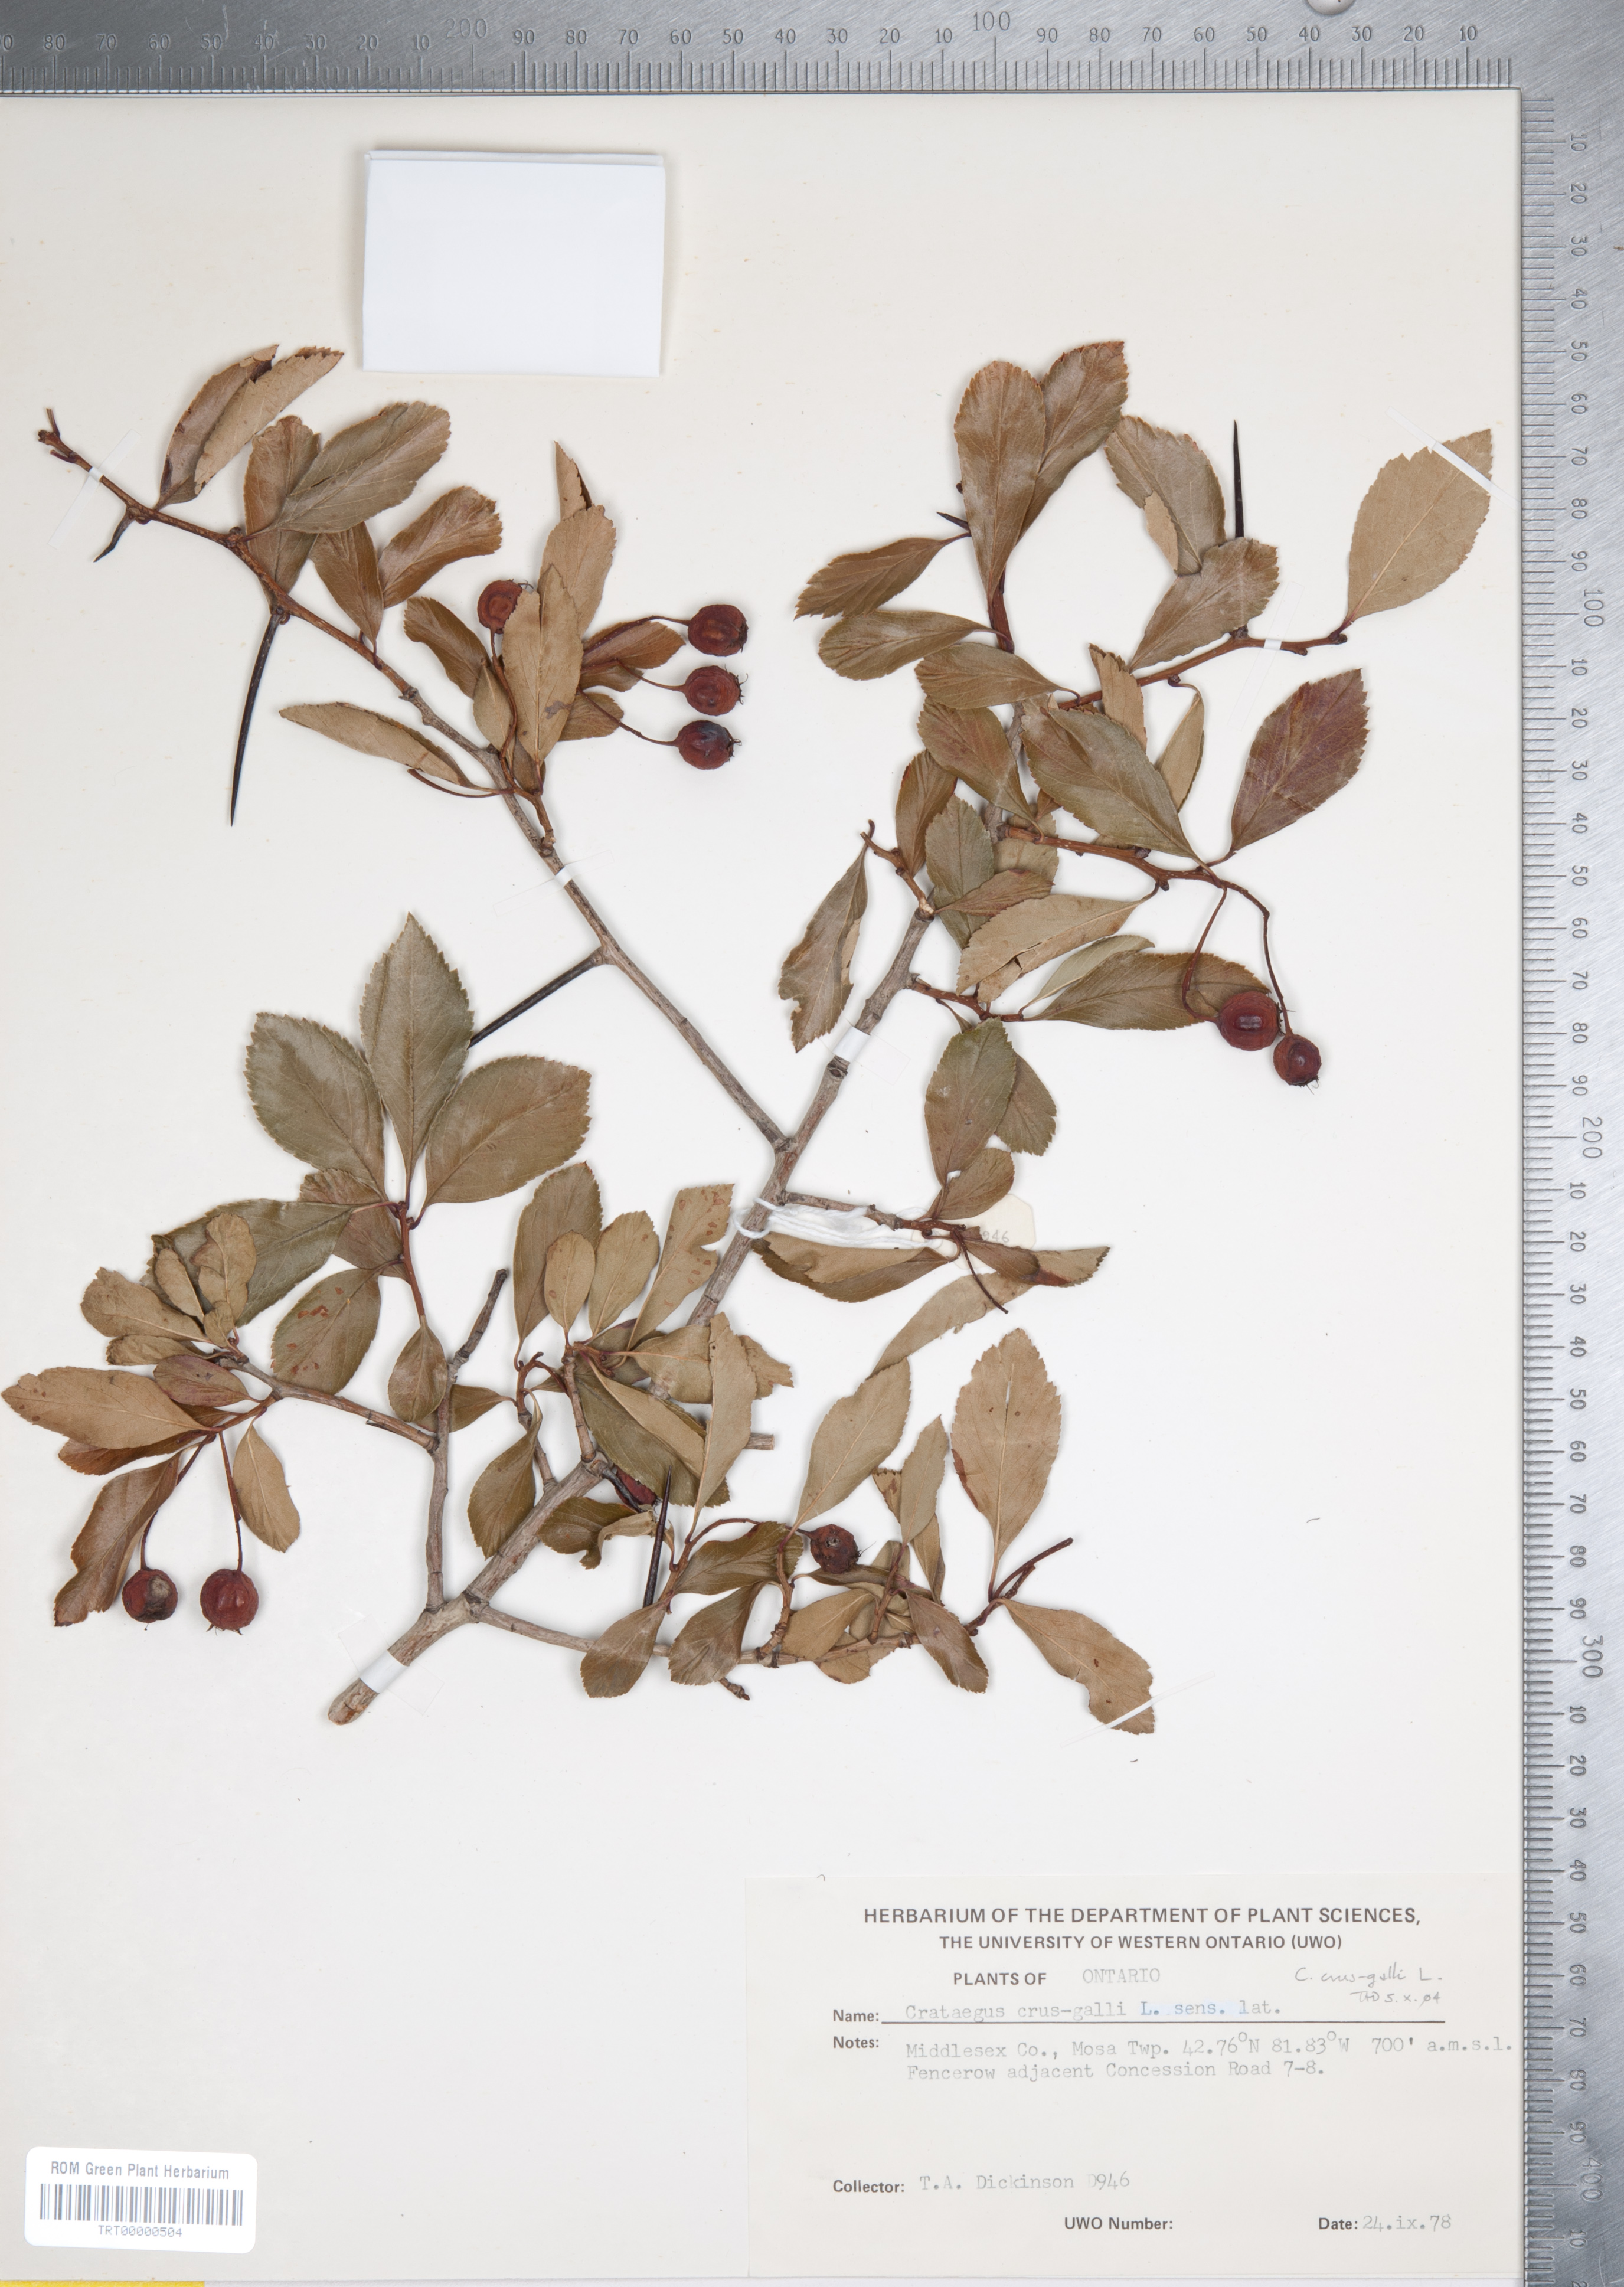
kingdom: Plantae
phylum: Tracheophyta
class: Magnoliopsida
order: Rosales
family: Rosaceae
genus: Crataegus
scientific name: Crataegus crus-galli
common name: Cockspurthorn
